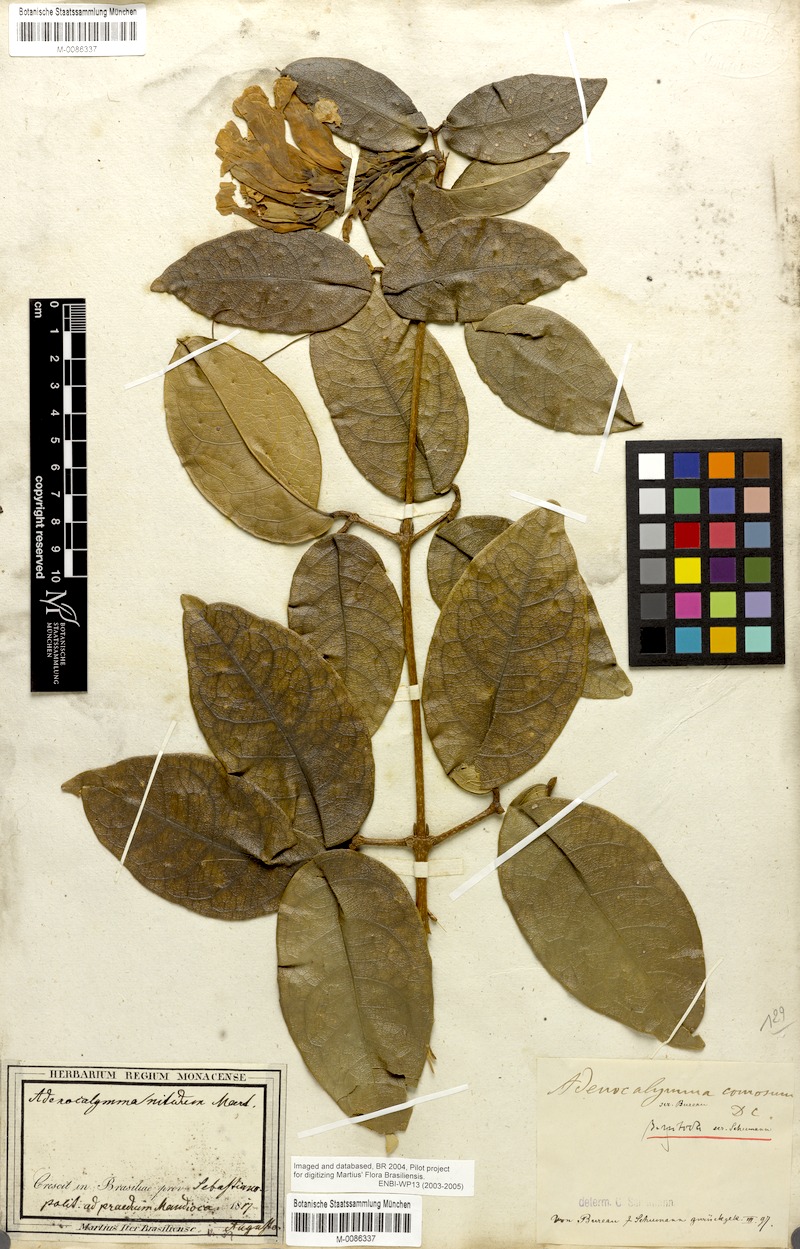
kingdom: Plantae
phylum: Tracheophyta
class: Magnoliopsida
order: Lamiales
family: Bignoniaceae
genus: Adenocalymma
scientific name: Adenocalymma acutissimum
